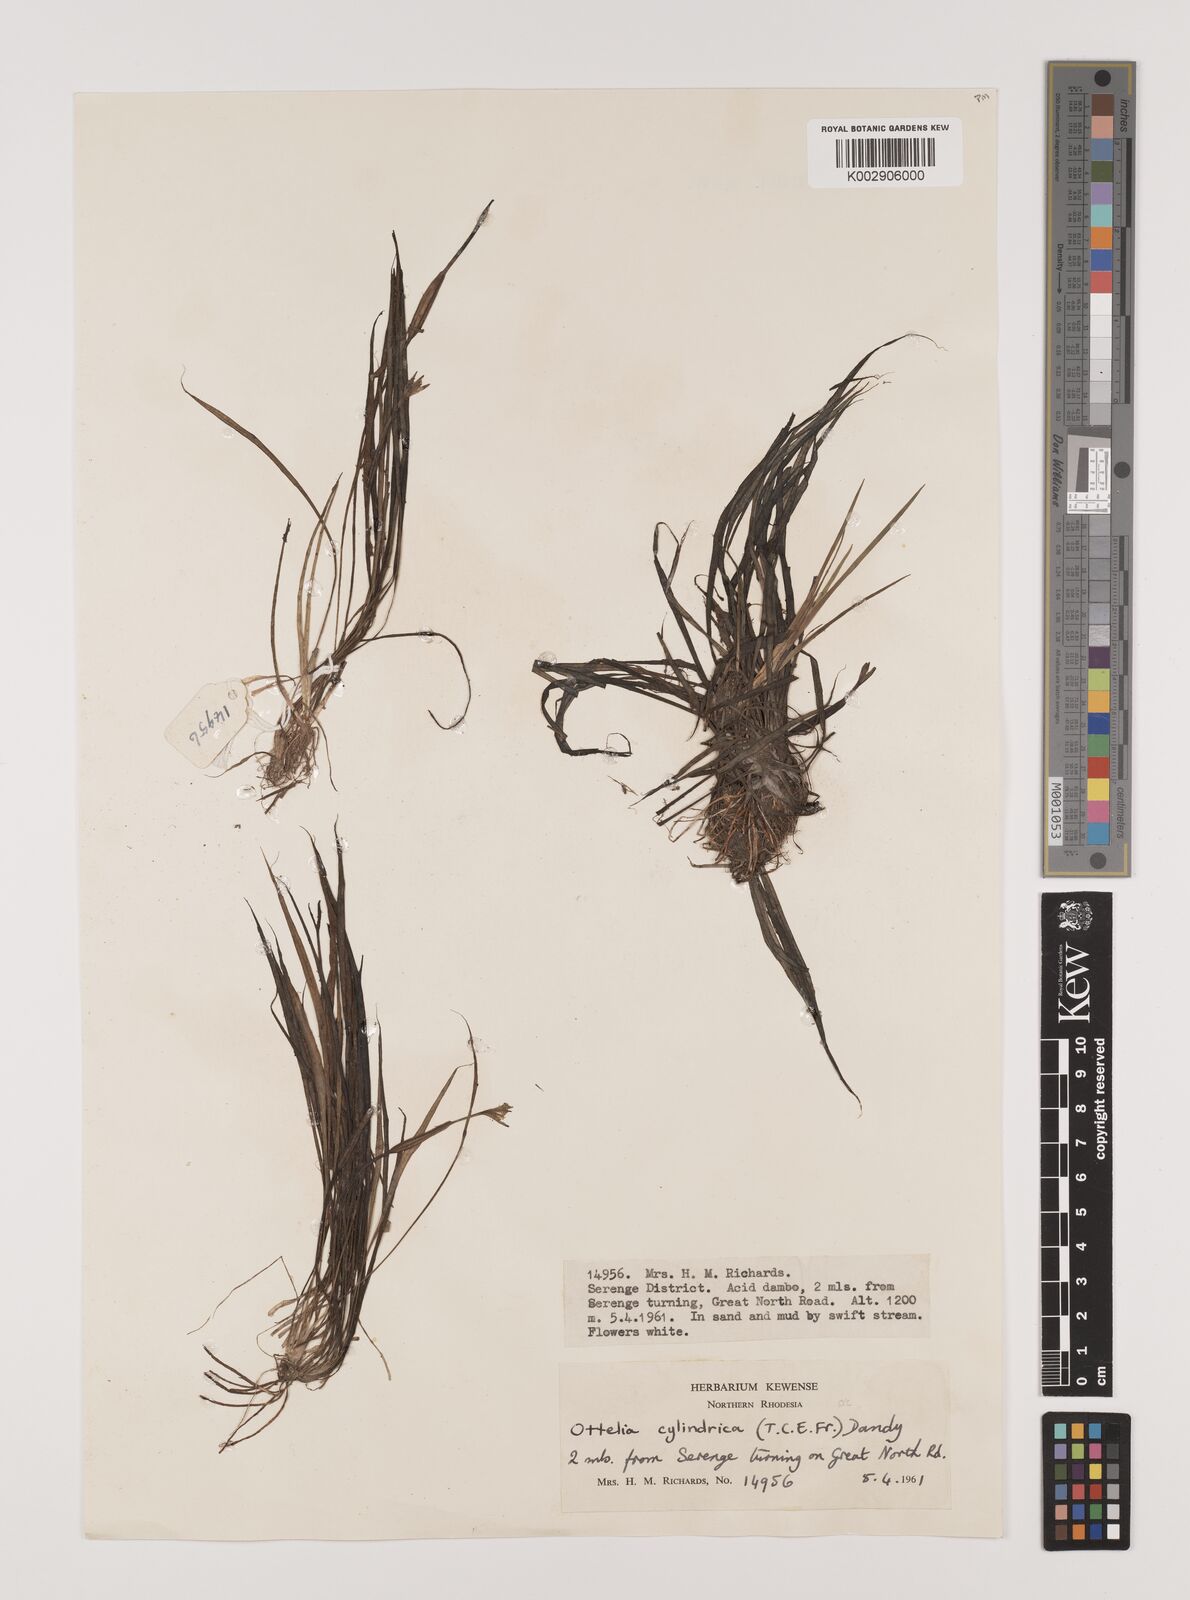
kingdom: Plantae
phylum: Tracheophyta
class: Liliopsida
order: Alismatales
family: Hydrocharitaceae
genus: Ottelia
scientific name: Ottelia cylindrica
